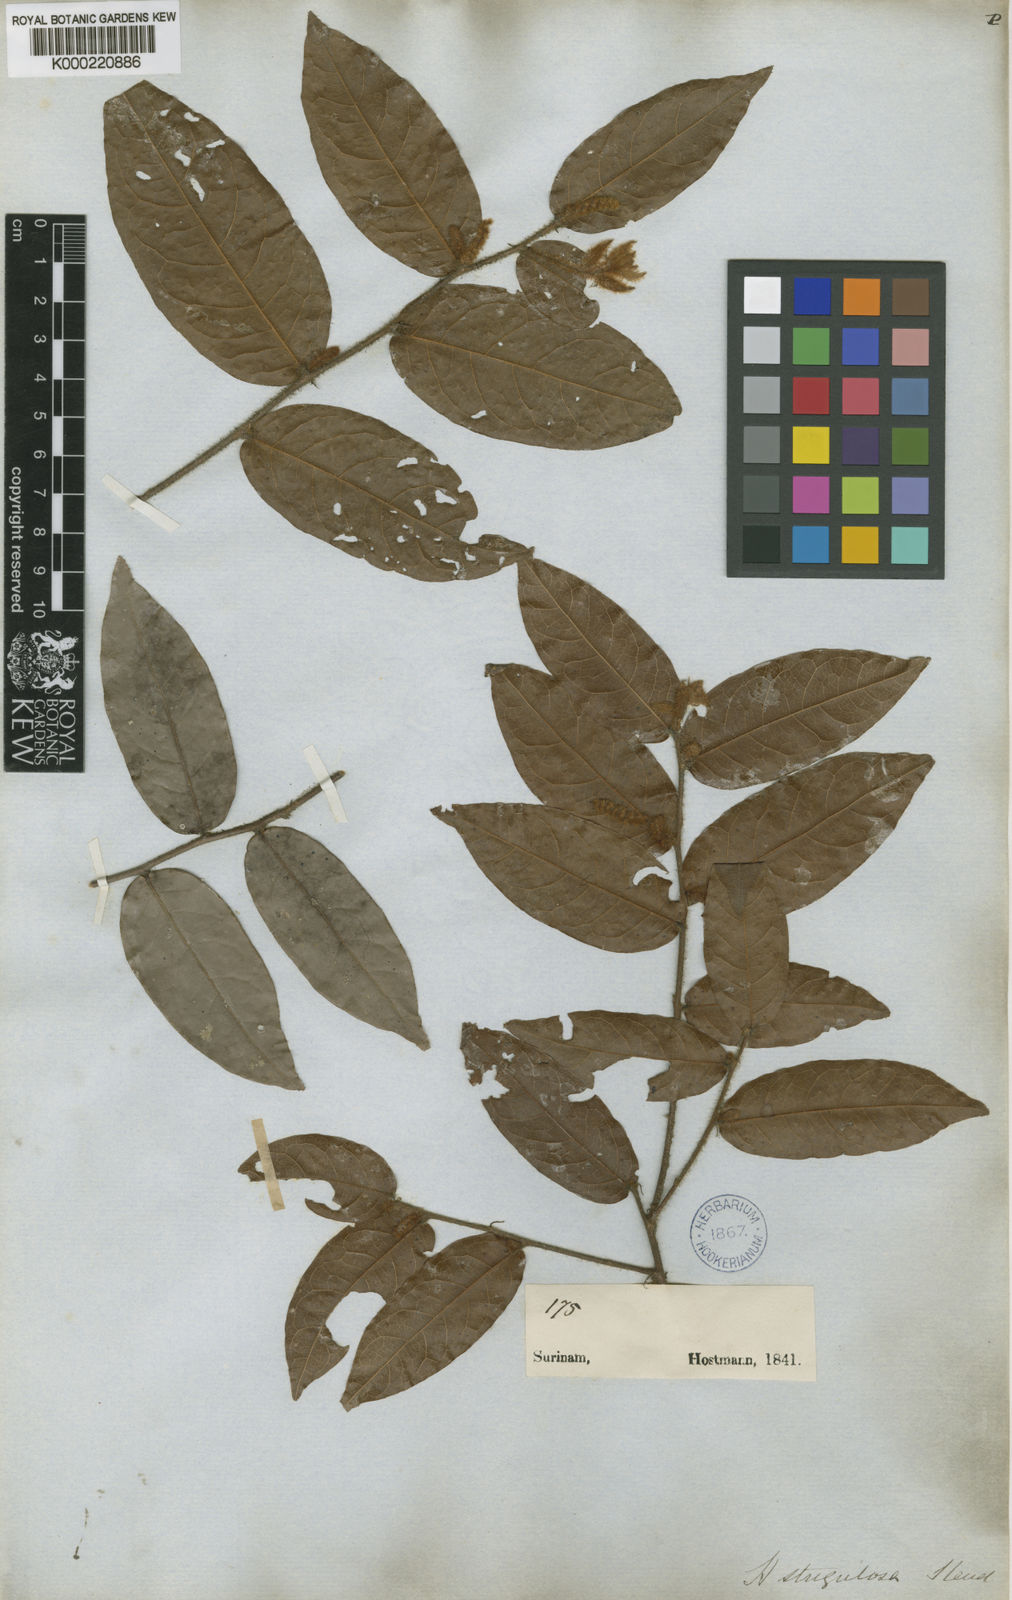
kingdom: Plantae
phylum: Tracheophyta
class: Magnoliopsida
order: Malpighiales
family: Chrysobalanaceae
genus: Hirtella
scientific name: Hirtella racemosa
